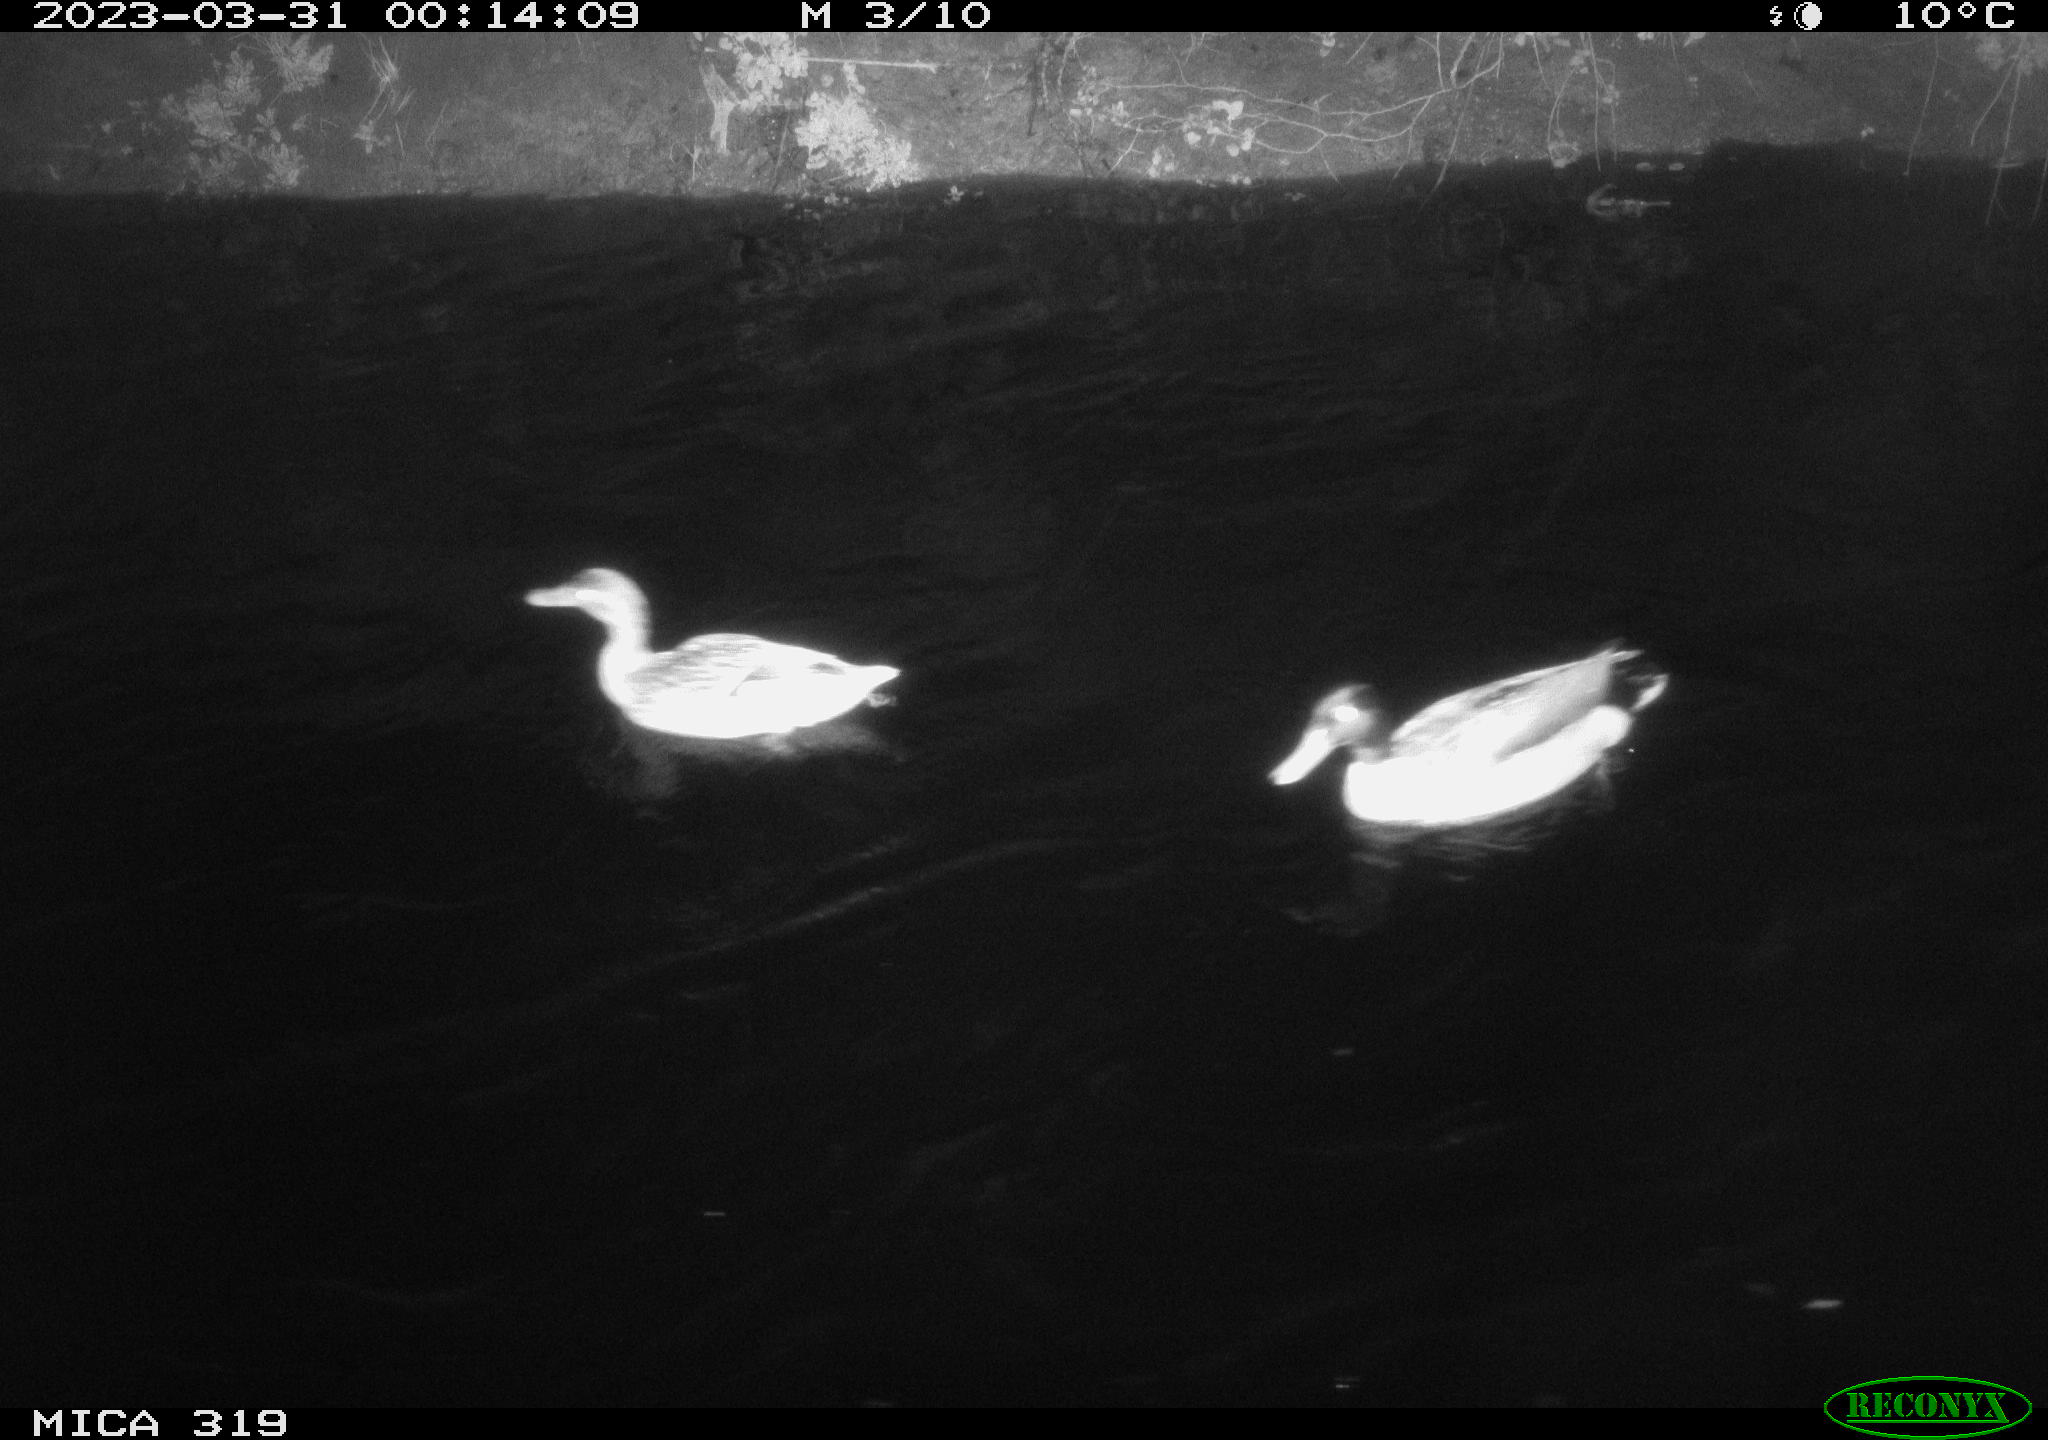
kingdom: Animalia
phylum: Chordata
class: Aves
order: Anseriformes
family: Anatidae
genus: Anas
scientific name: Anas
